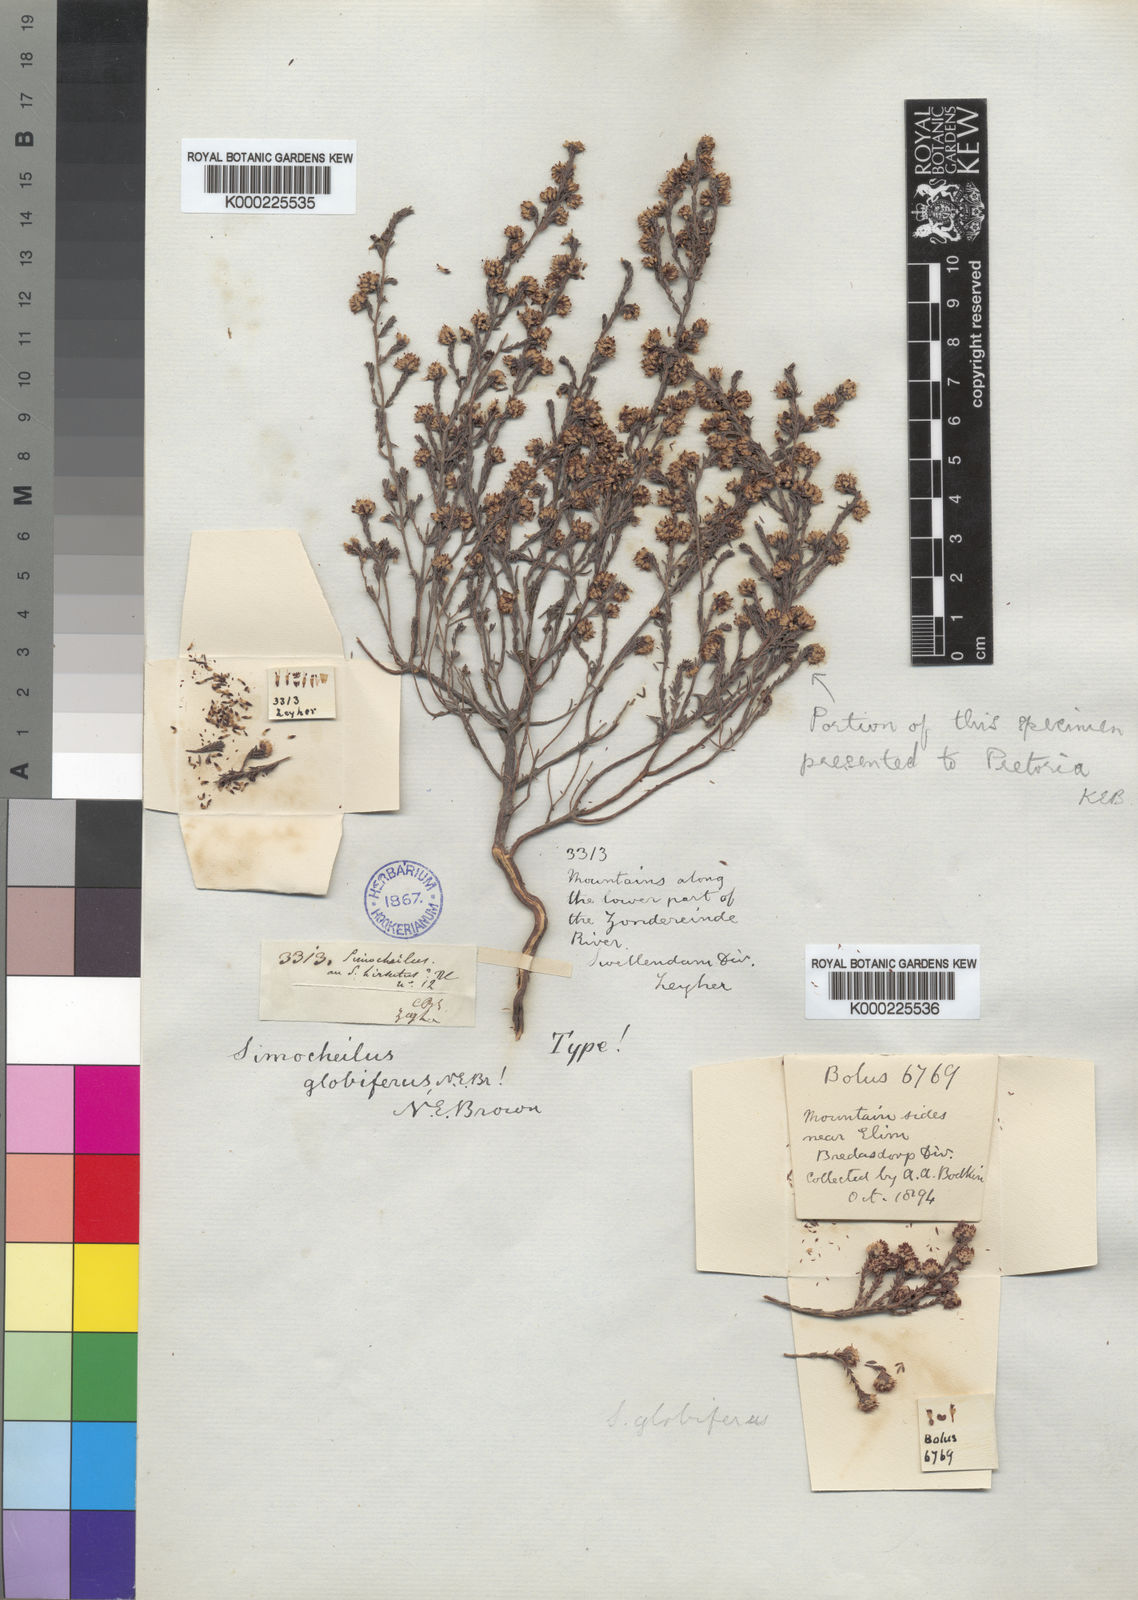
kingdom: Plantae
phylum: Tracheophyta
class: Magnoliopsida
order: Ericales
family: Ericaceae
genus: Erica
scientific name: Erica
